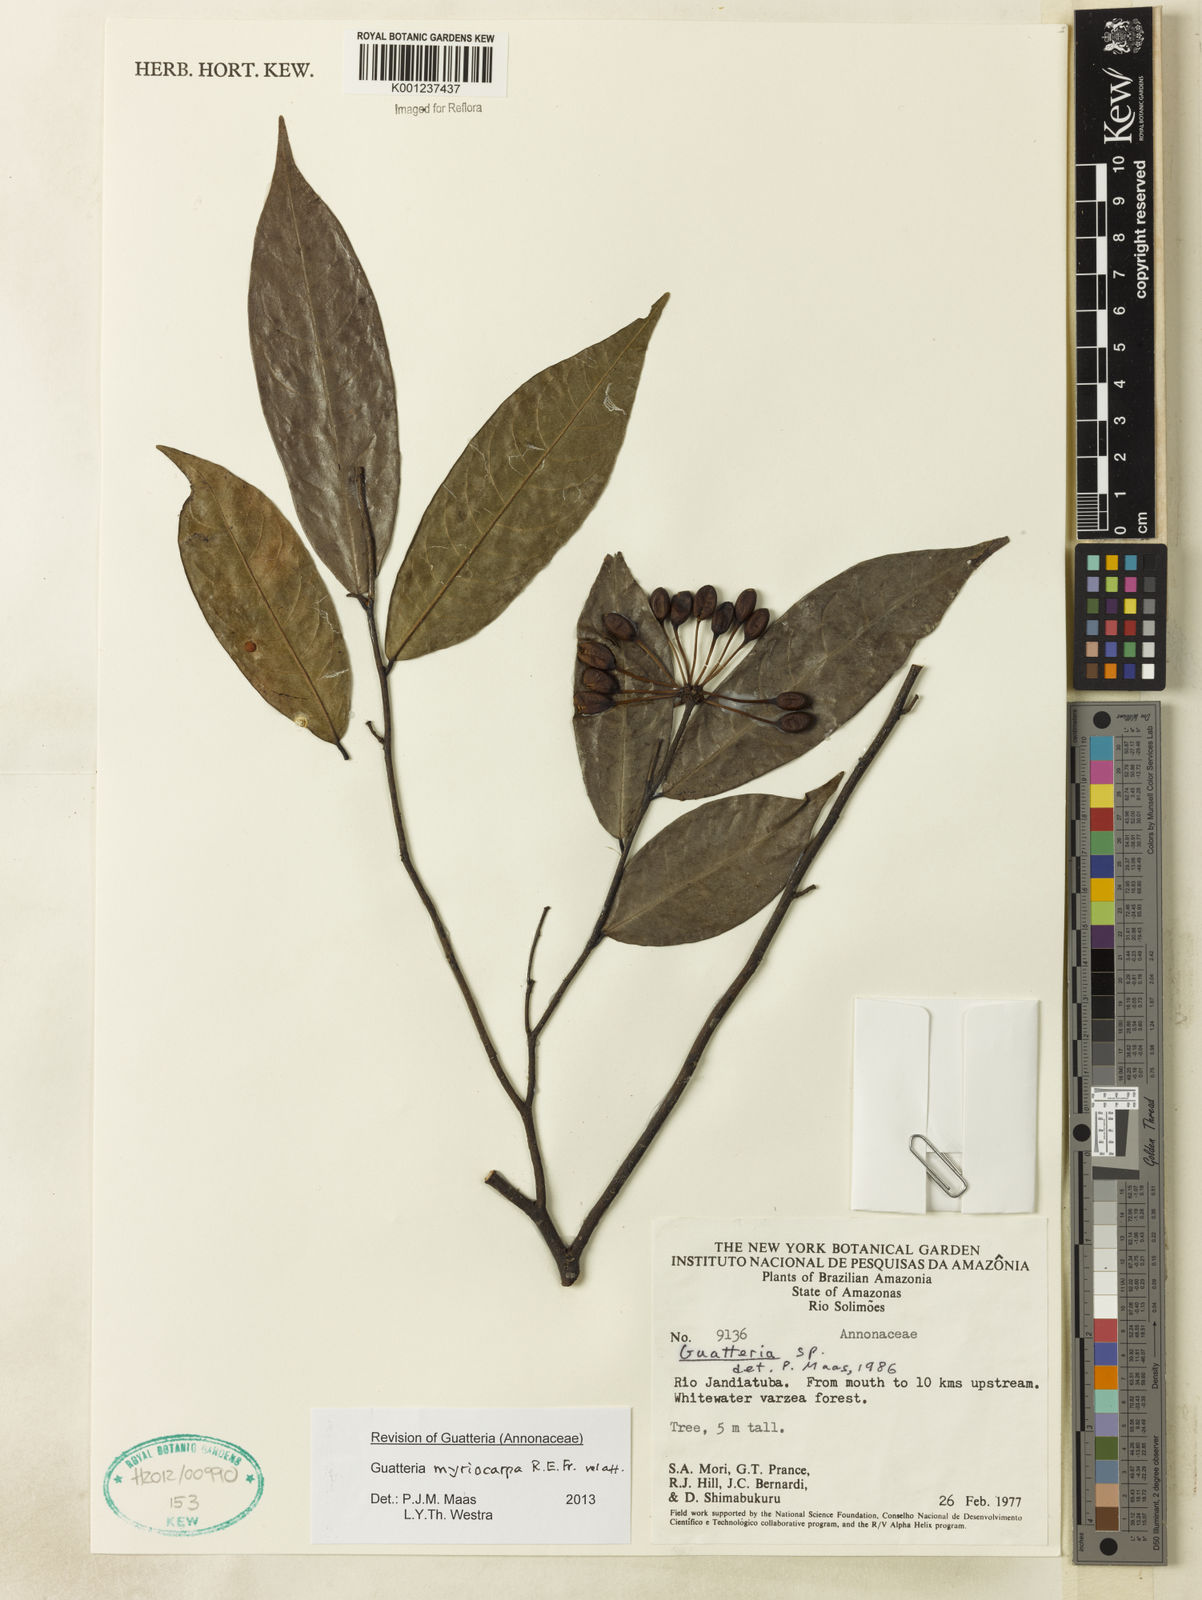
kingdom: Plantae
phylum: Tracheophyta
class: Magnoliopsida
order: Magnoliales
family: Annonaceae
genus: Guatteria
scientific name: Guatteria myriocarpa
